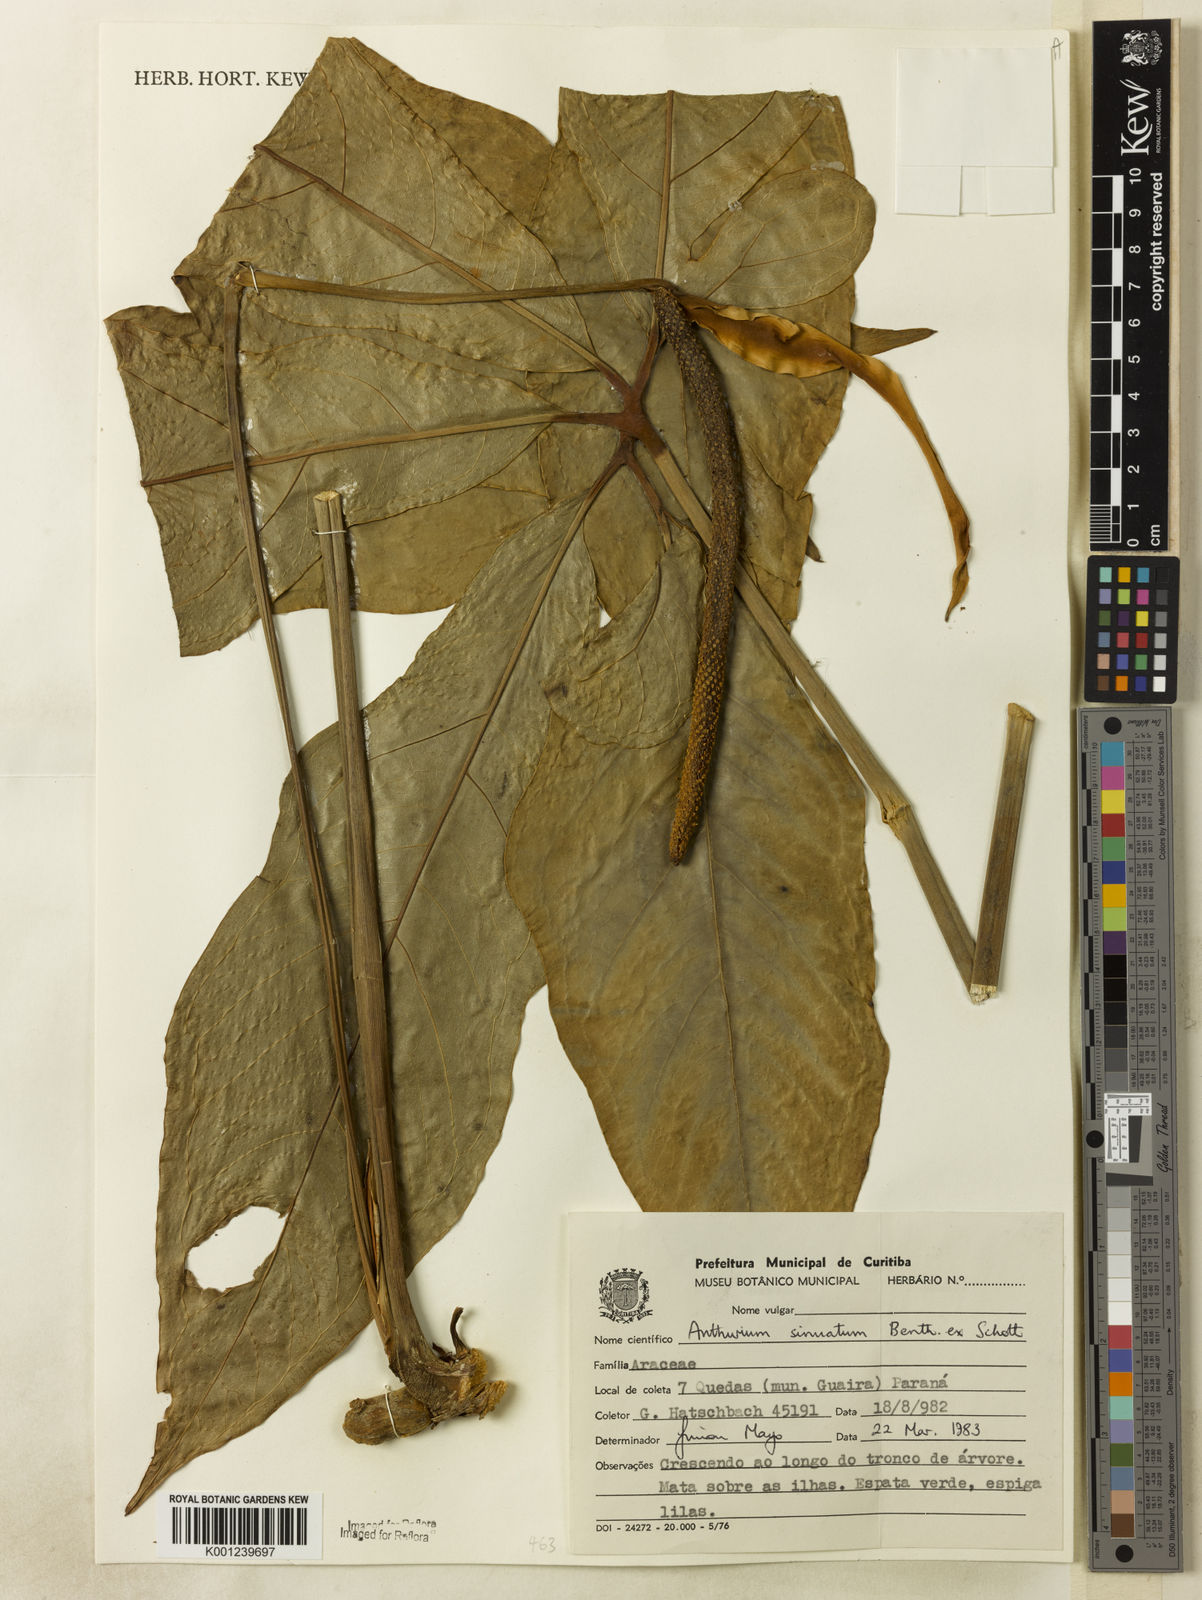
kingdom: Plantae
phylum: Tracheophyta
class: Liliopsida
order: Alismatales
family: Araceae
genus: Anthurium
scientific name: Anthurium sinuatum
